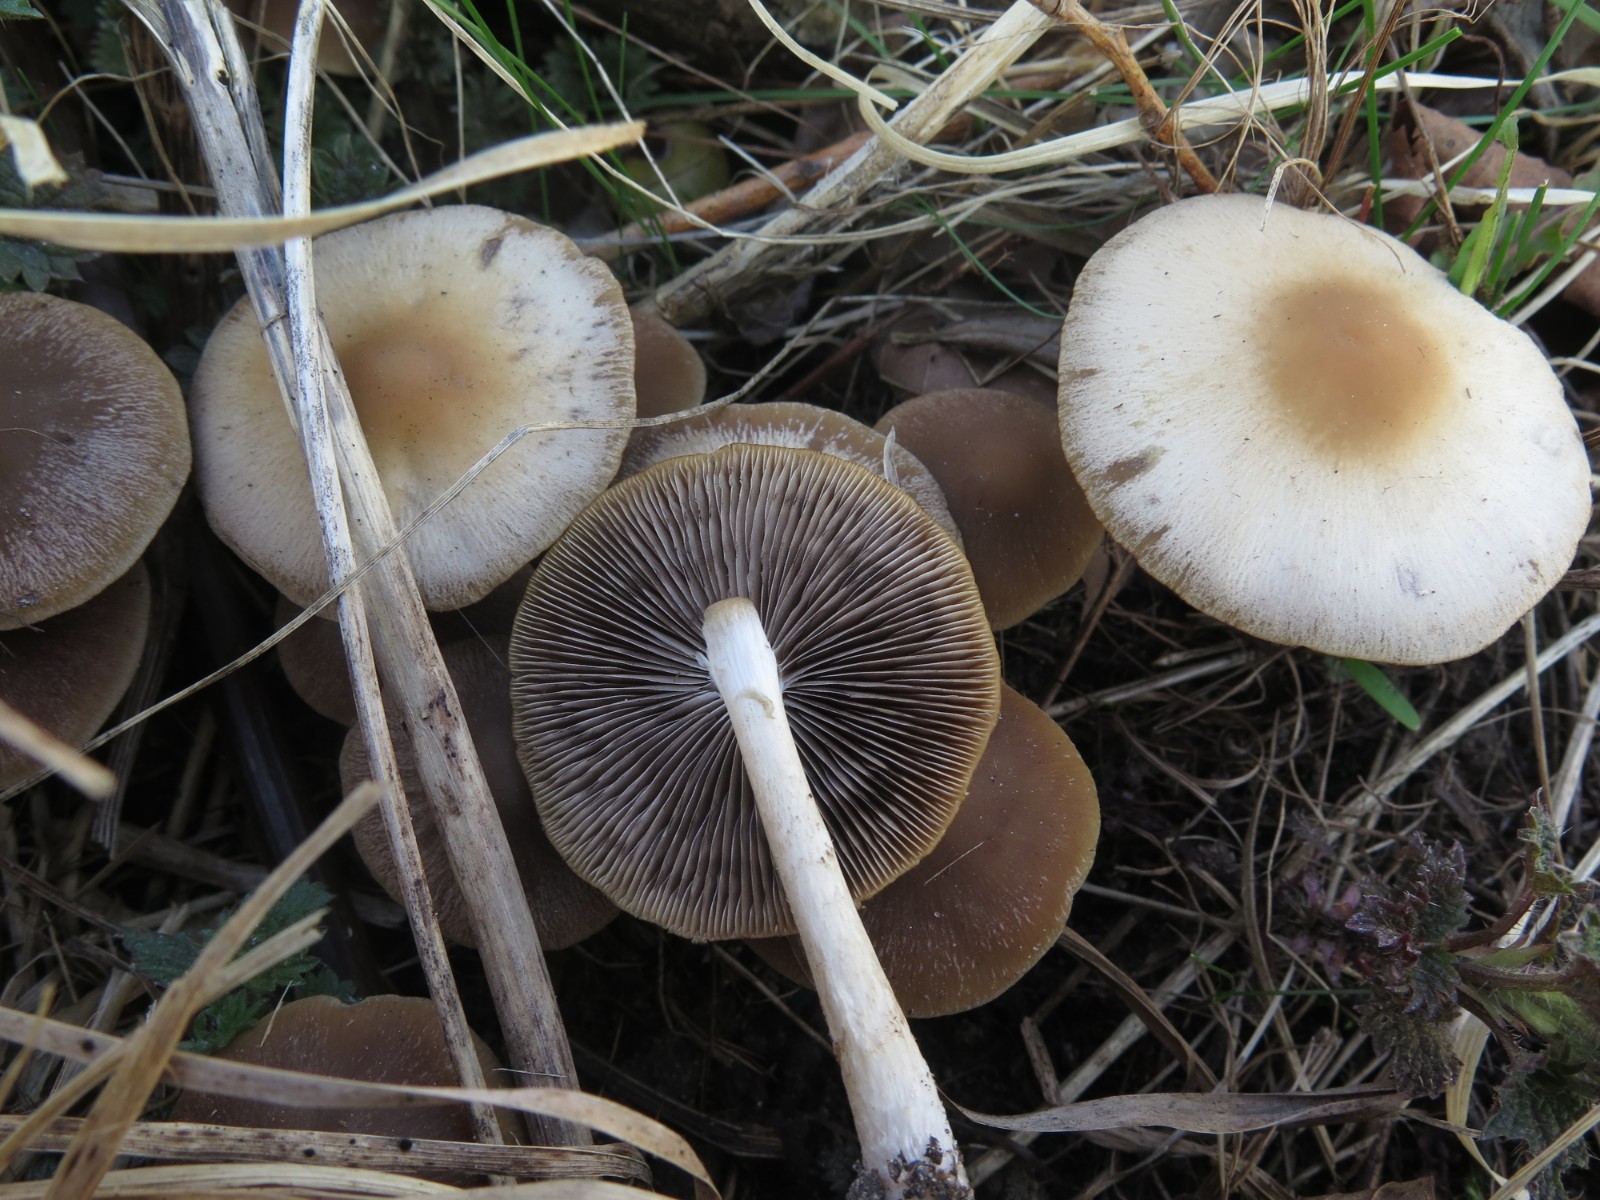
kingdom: Fungi
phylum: Basidiomycota
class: Agaricomycetes
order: Agaricales
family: Psathyrellaceae
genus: Psathyrella
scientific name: Psathyrella spadiceogrisea
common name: gråbrun mørkhat
